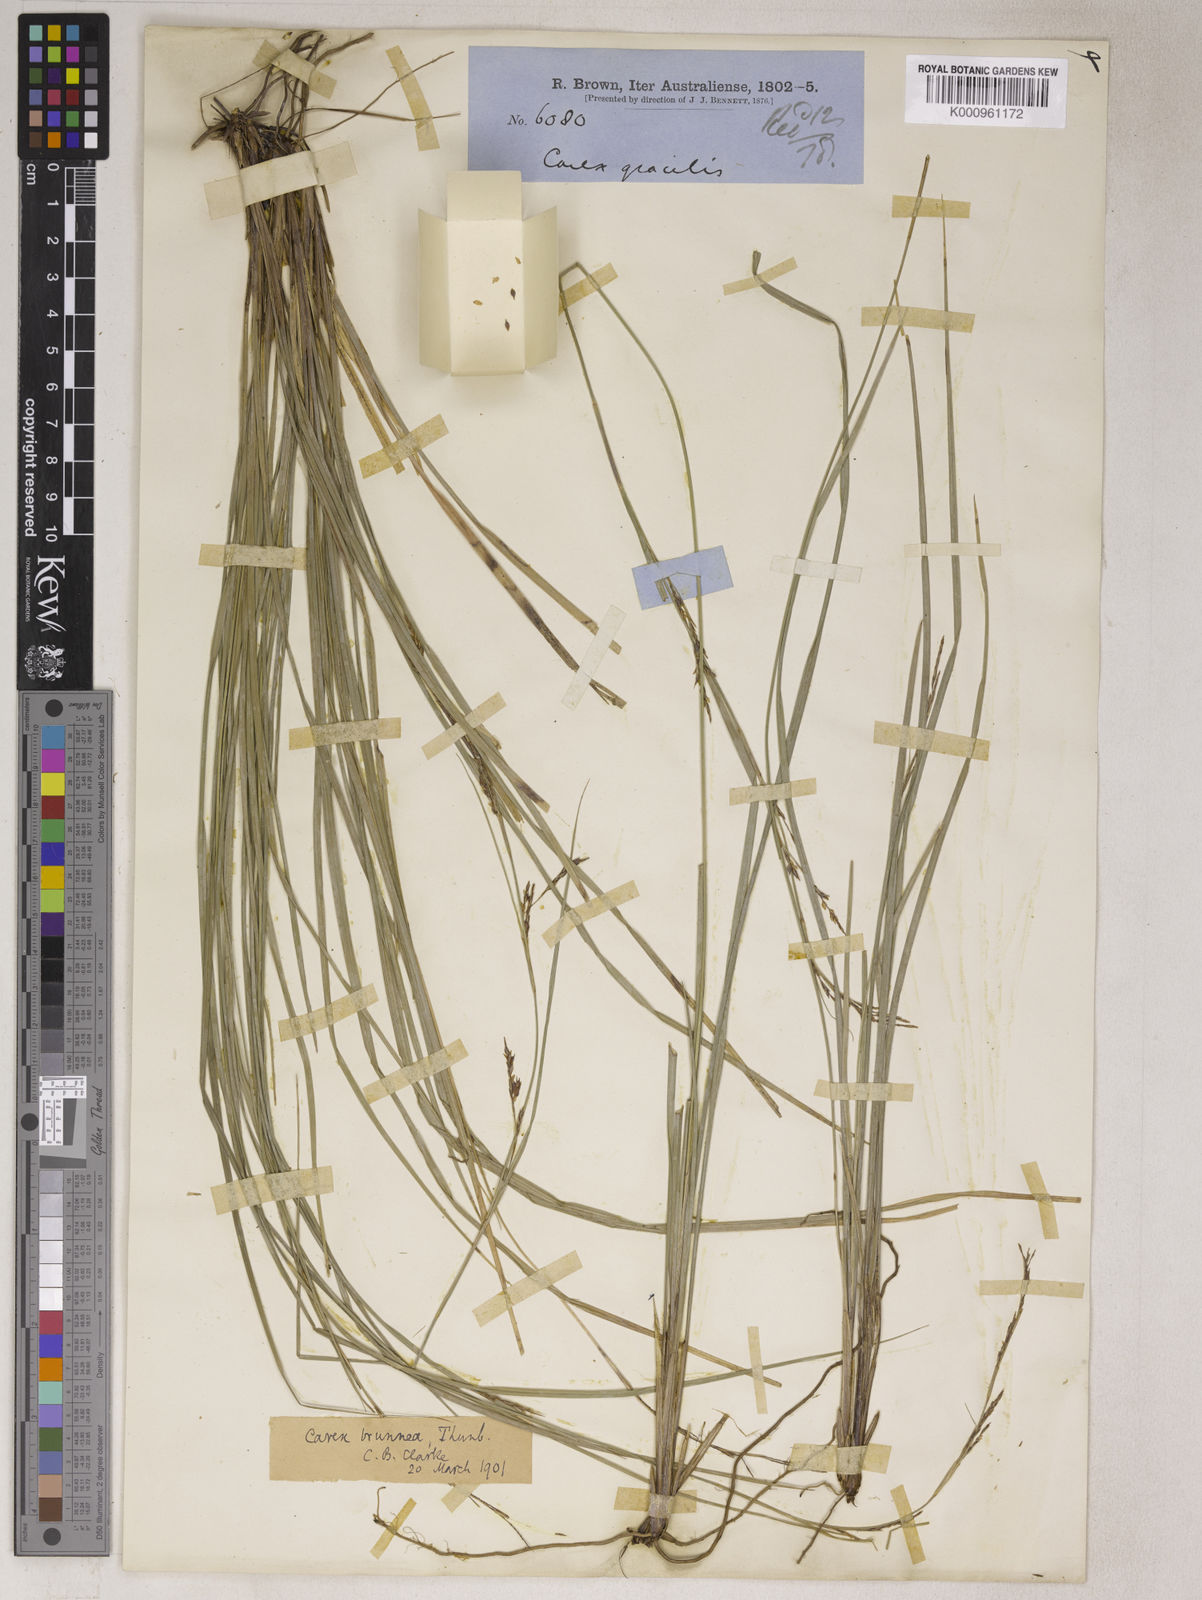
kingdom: Plantae
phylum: Tracheophyta
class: Liliopsida
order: Poales
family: Cyperaceae
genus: Carex
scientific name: Carex brunnea
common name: Greater brown sedge
